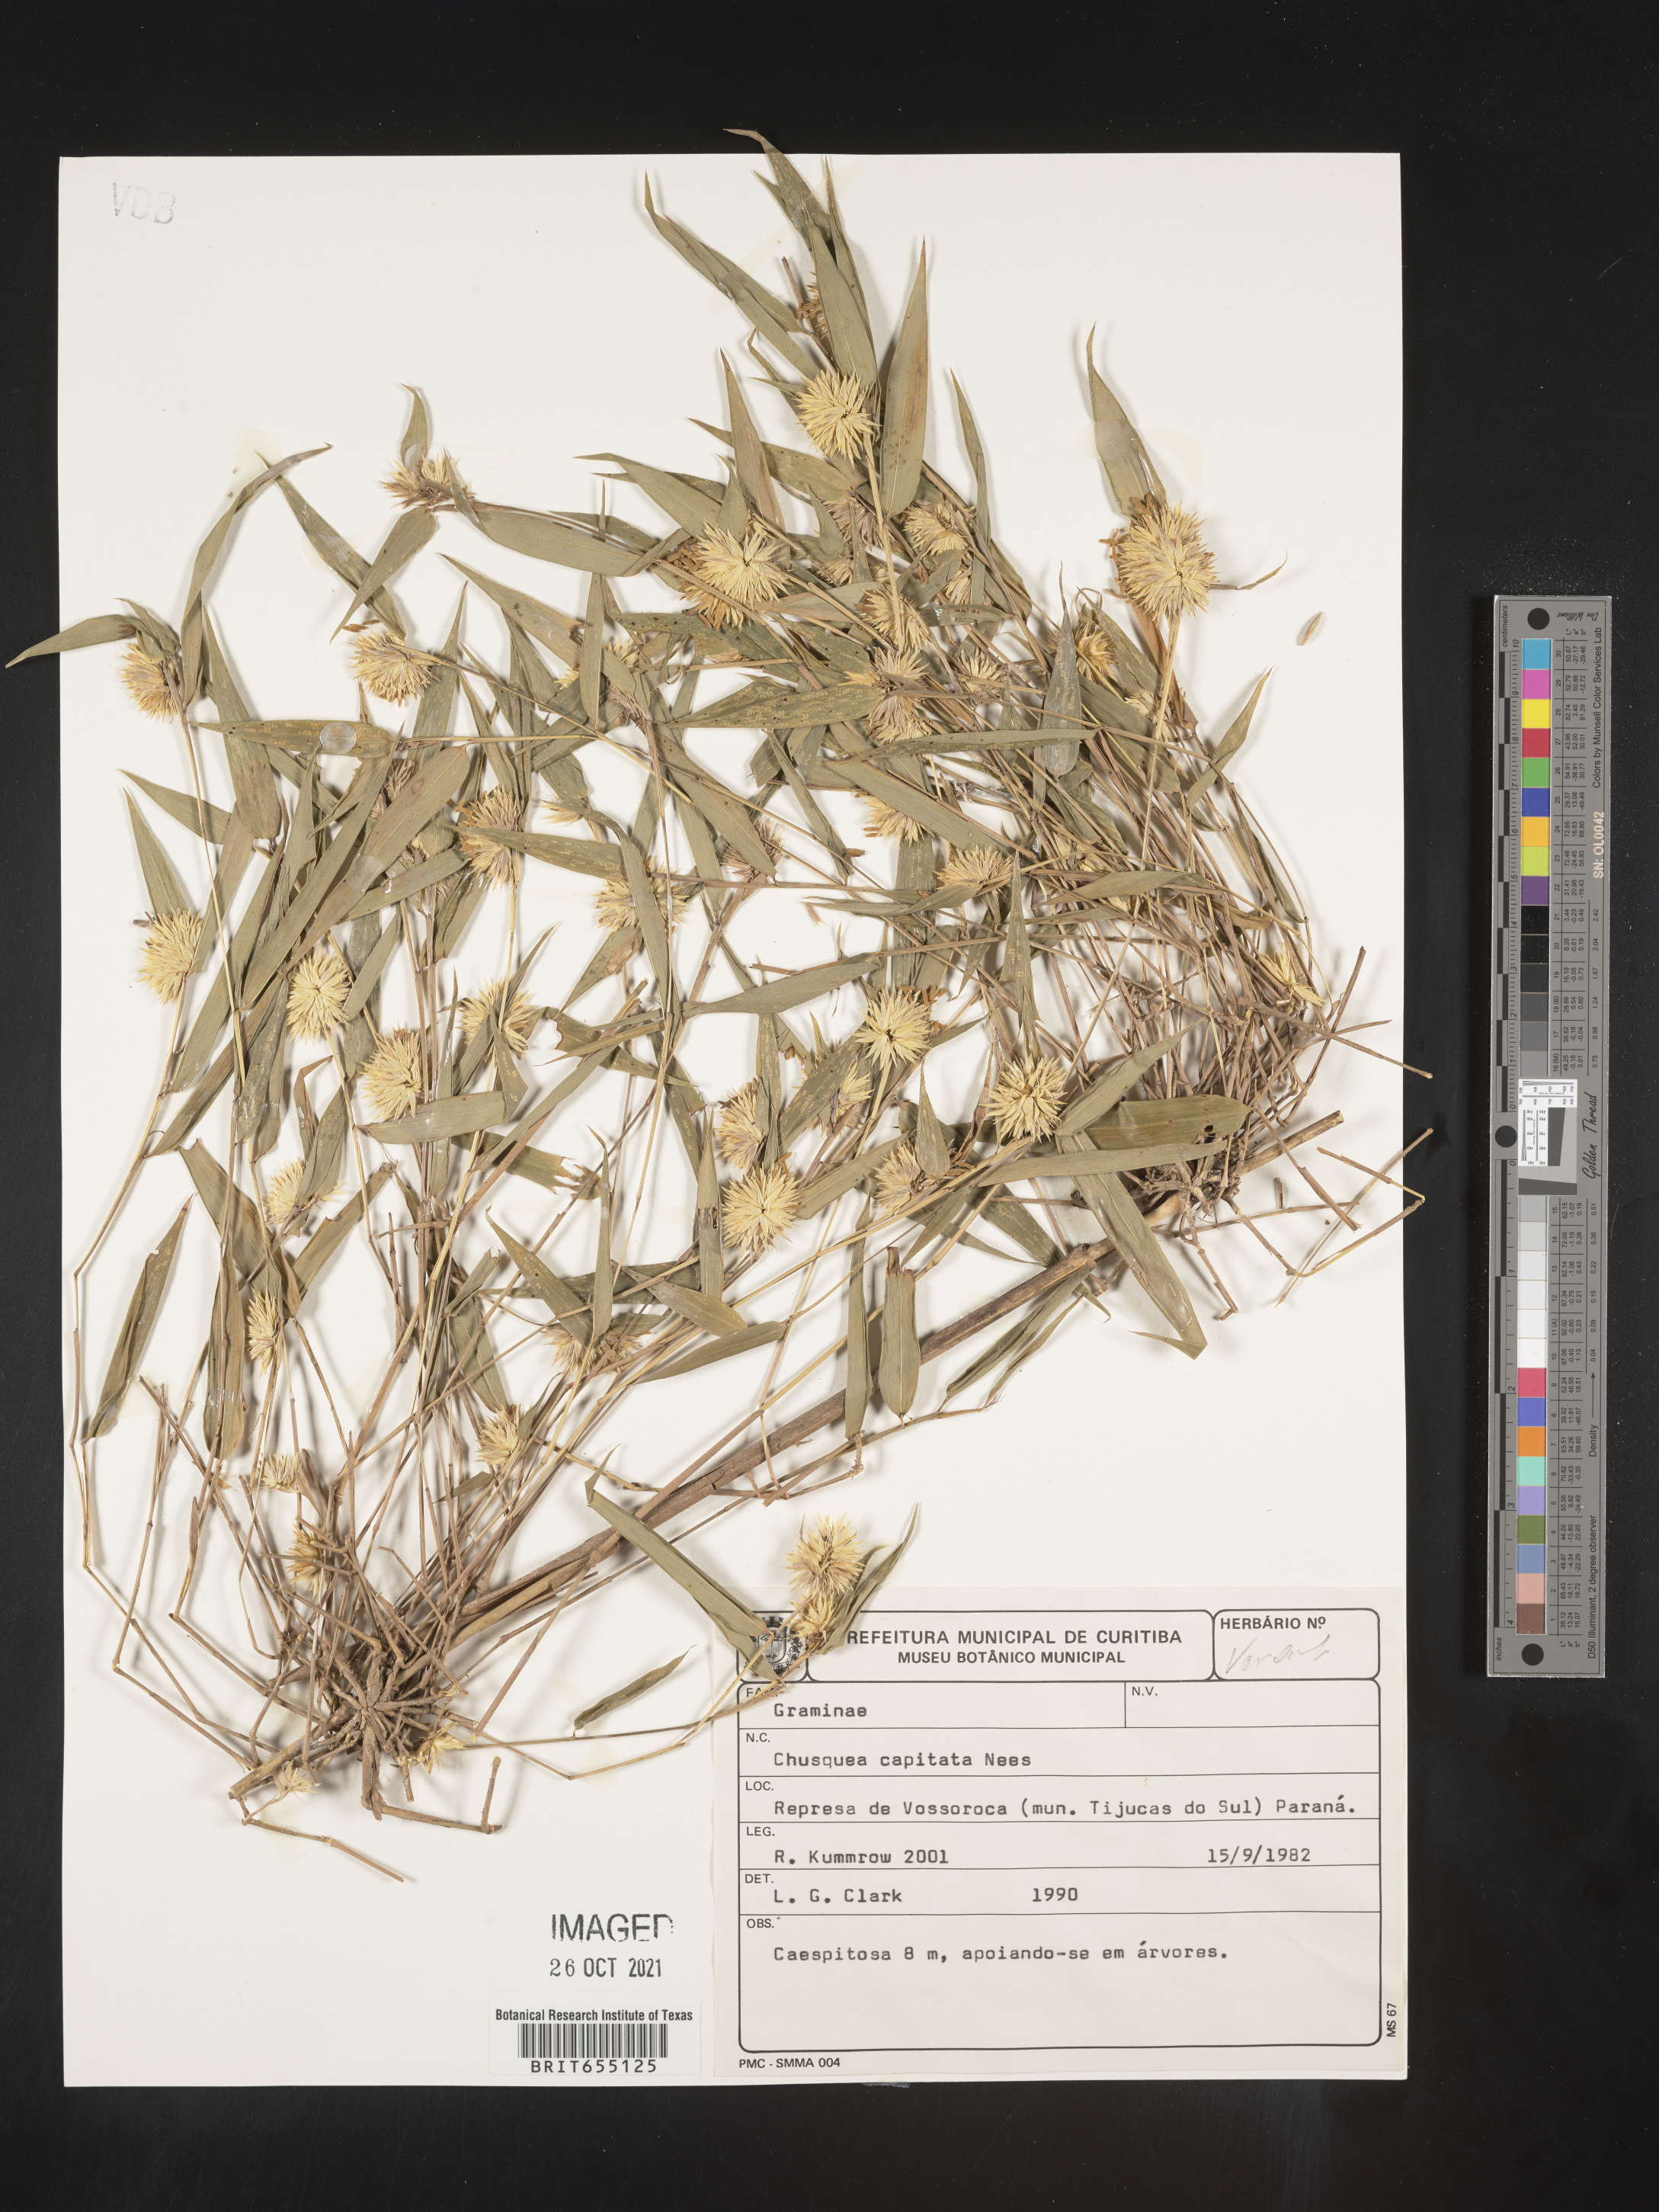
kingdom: Plantae
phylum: Tracheophyta
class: Liliopsida
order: Poales
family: Poaceae
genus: Chusquea
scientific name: Chusquea
